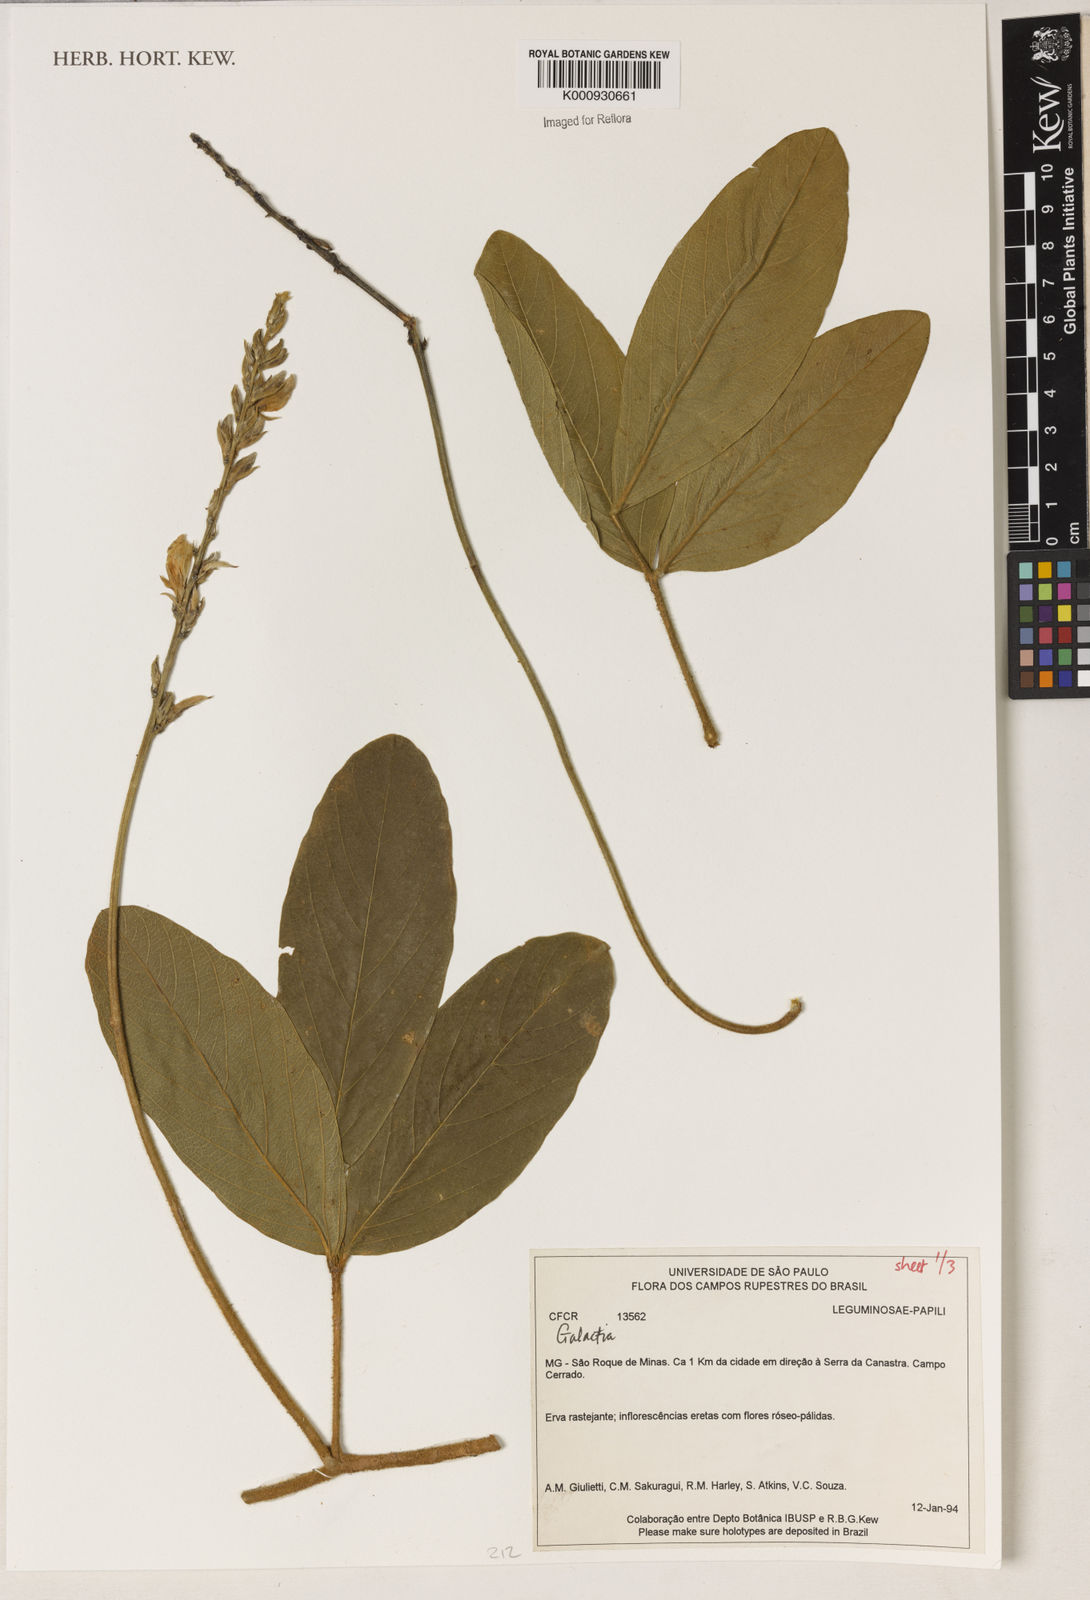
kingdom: Plantae
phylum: Tracheophyta
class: Magnoliopsida
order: Fabales
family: Fabaceae
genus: Galactia
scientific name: Galactia
